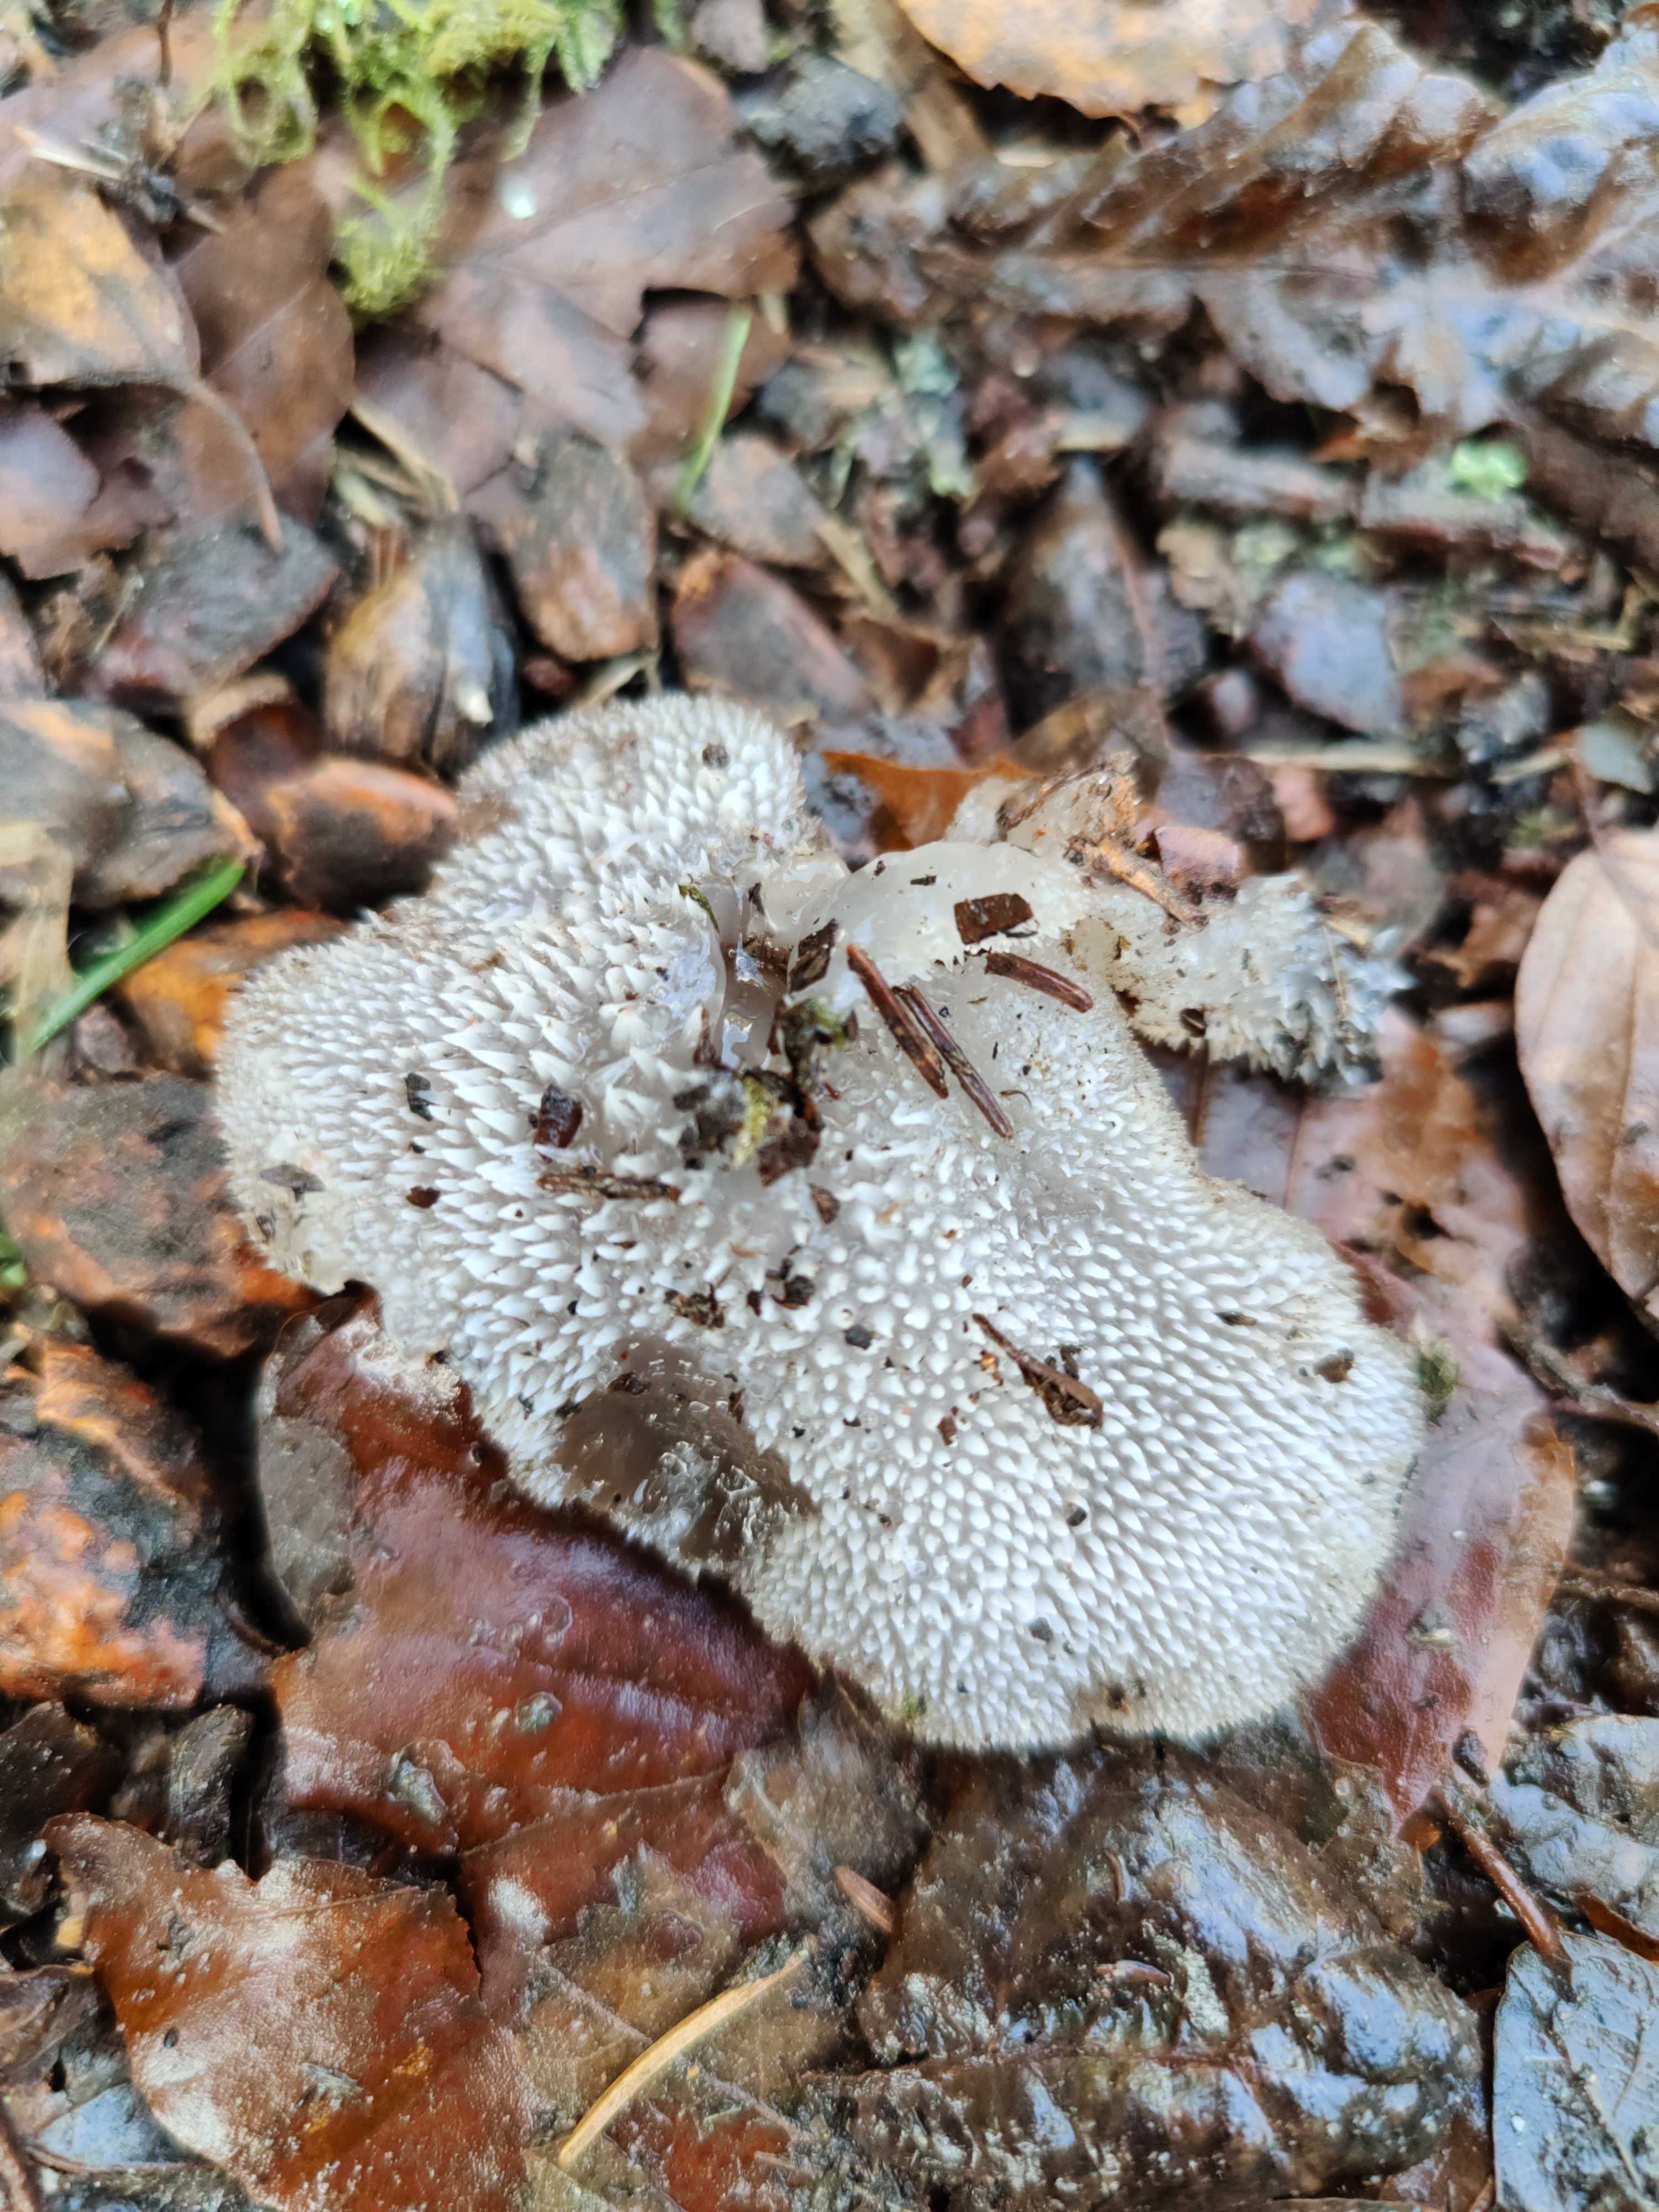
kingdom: Fungi
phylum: Basidiomycota
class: Agaricomycetes
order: Auriculariales
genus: Pseudohydnum
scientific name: Pseudohydnum gelatinosum
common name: bævretand
